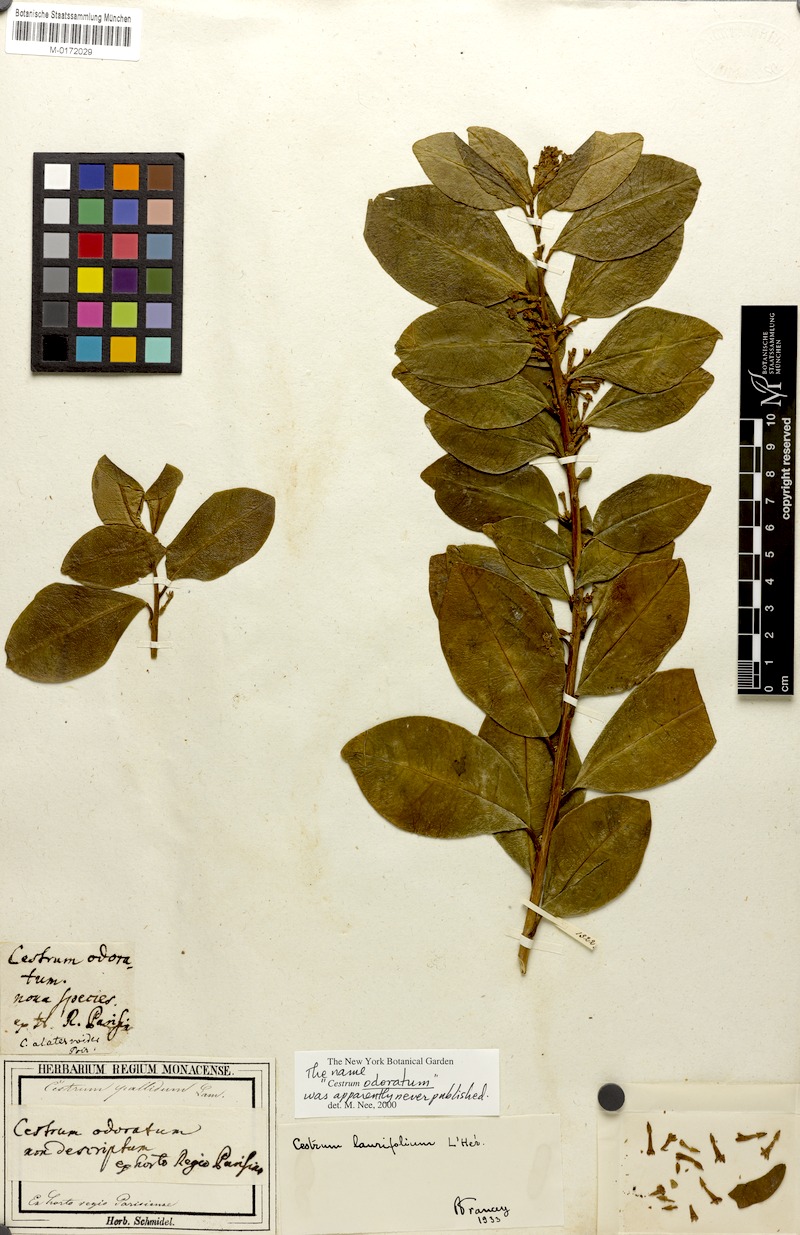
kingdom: Plantae
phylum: Tracheophyta
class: Magnoliopsida
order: Solanales
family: Solanaceae
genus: Cestrum
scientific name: Cestrum
